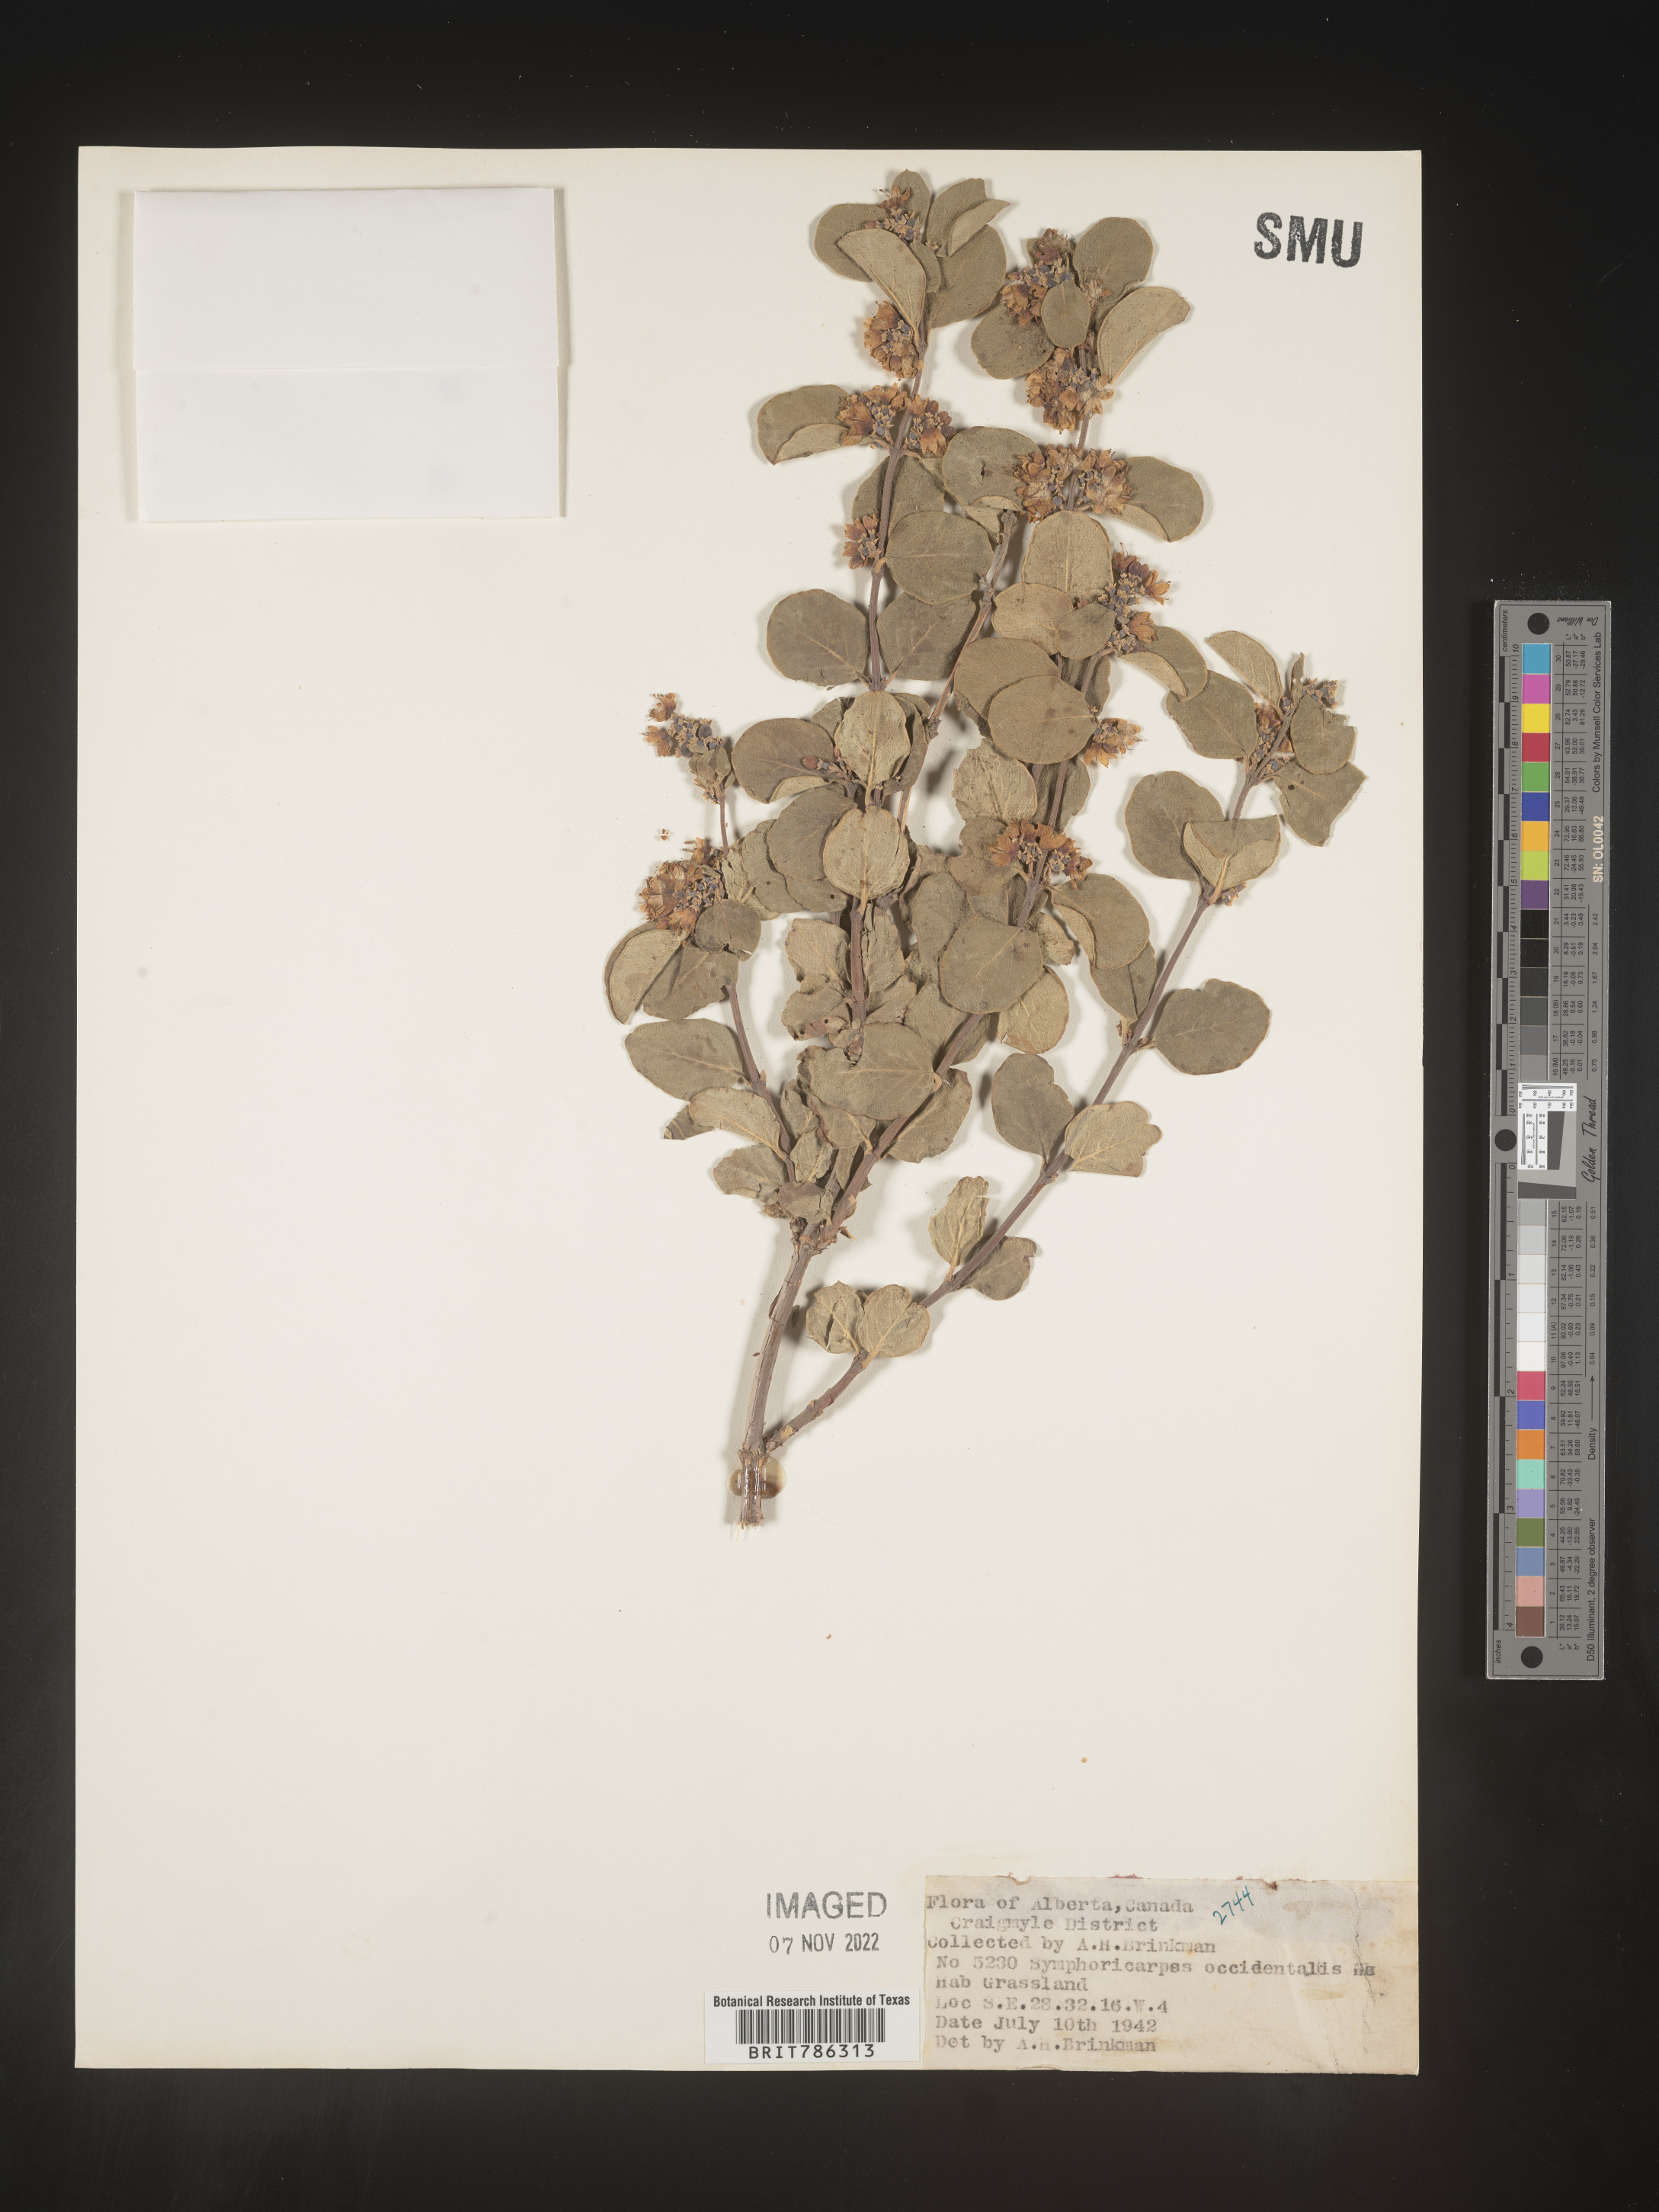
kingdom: Plantae
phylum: Tracheophyta
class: Magnoliopsida
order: Dipsacales
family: Caprifoliaceae
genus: Symphoricarpos
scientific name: Symphoricarpos occidentalis
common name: Wolfberry
